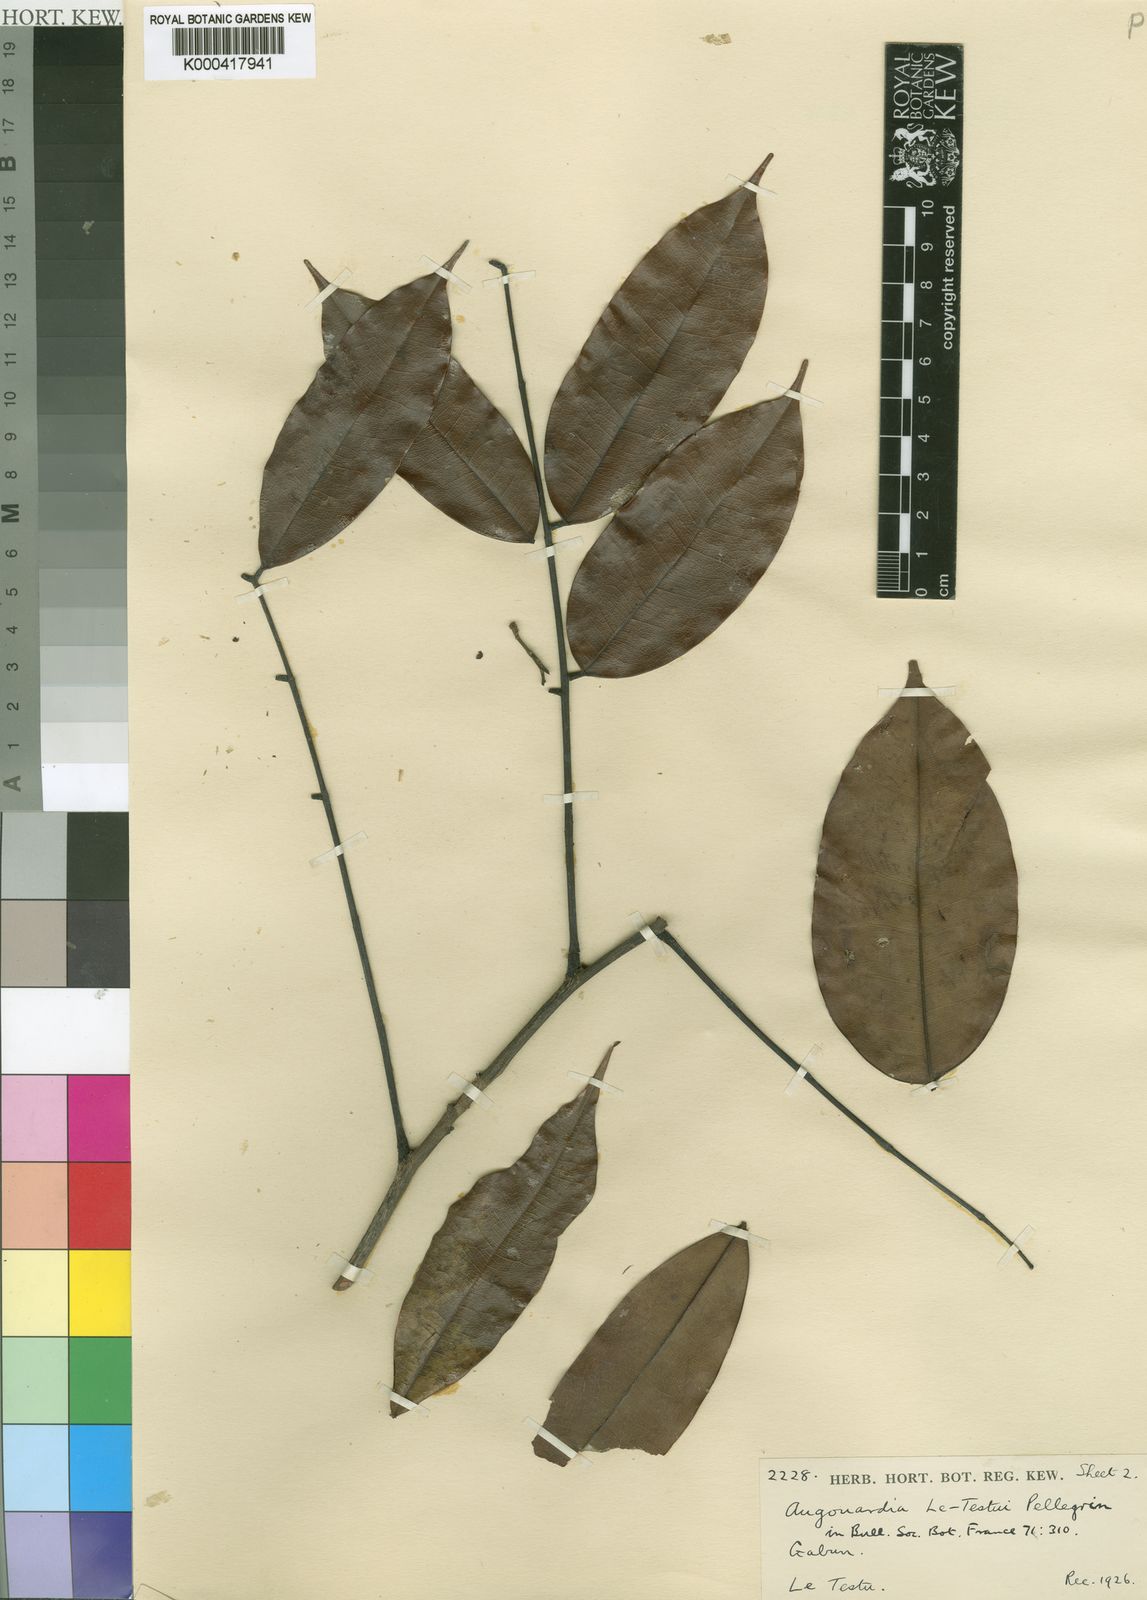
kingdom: Plantae
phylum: Tracheophyta
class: Magnoliopsida
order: Fabales
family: Fabaceae
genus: Augouardia
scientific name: Augouardia letestui
